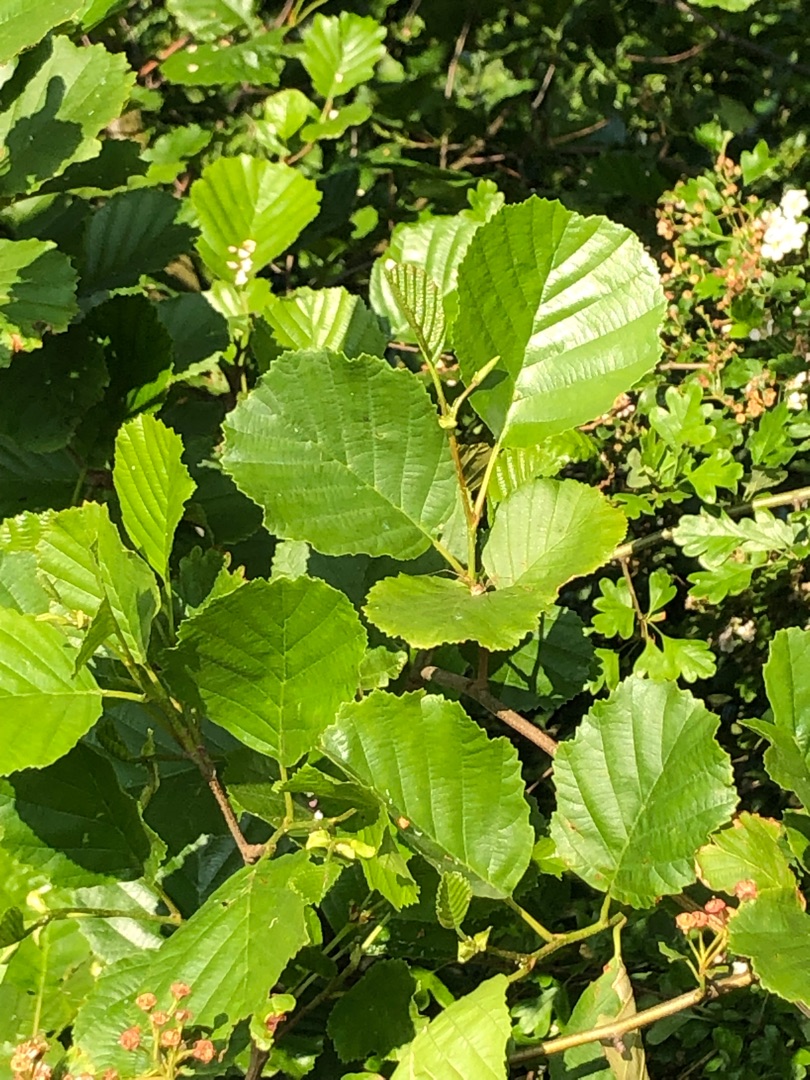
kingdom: Plantae
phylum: Tracheophyta
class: Magnoliopsida
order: Fagales
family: Betulaceae
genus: Alnus
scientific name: Alnus glutinosa
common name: Rød-el
